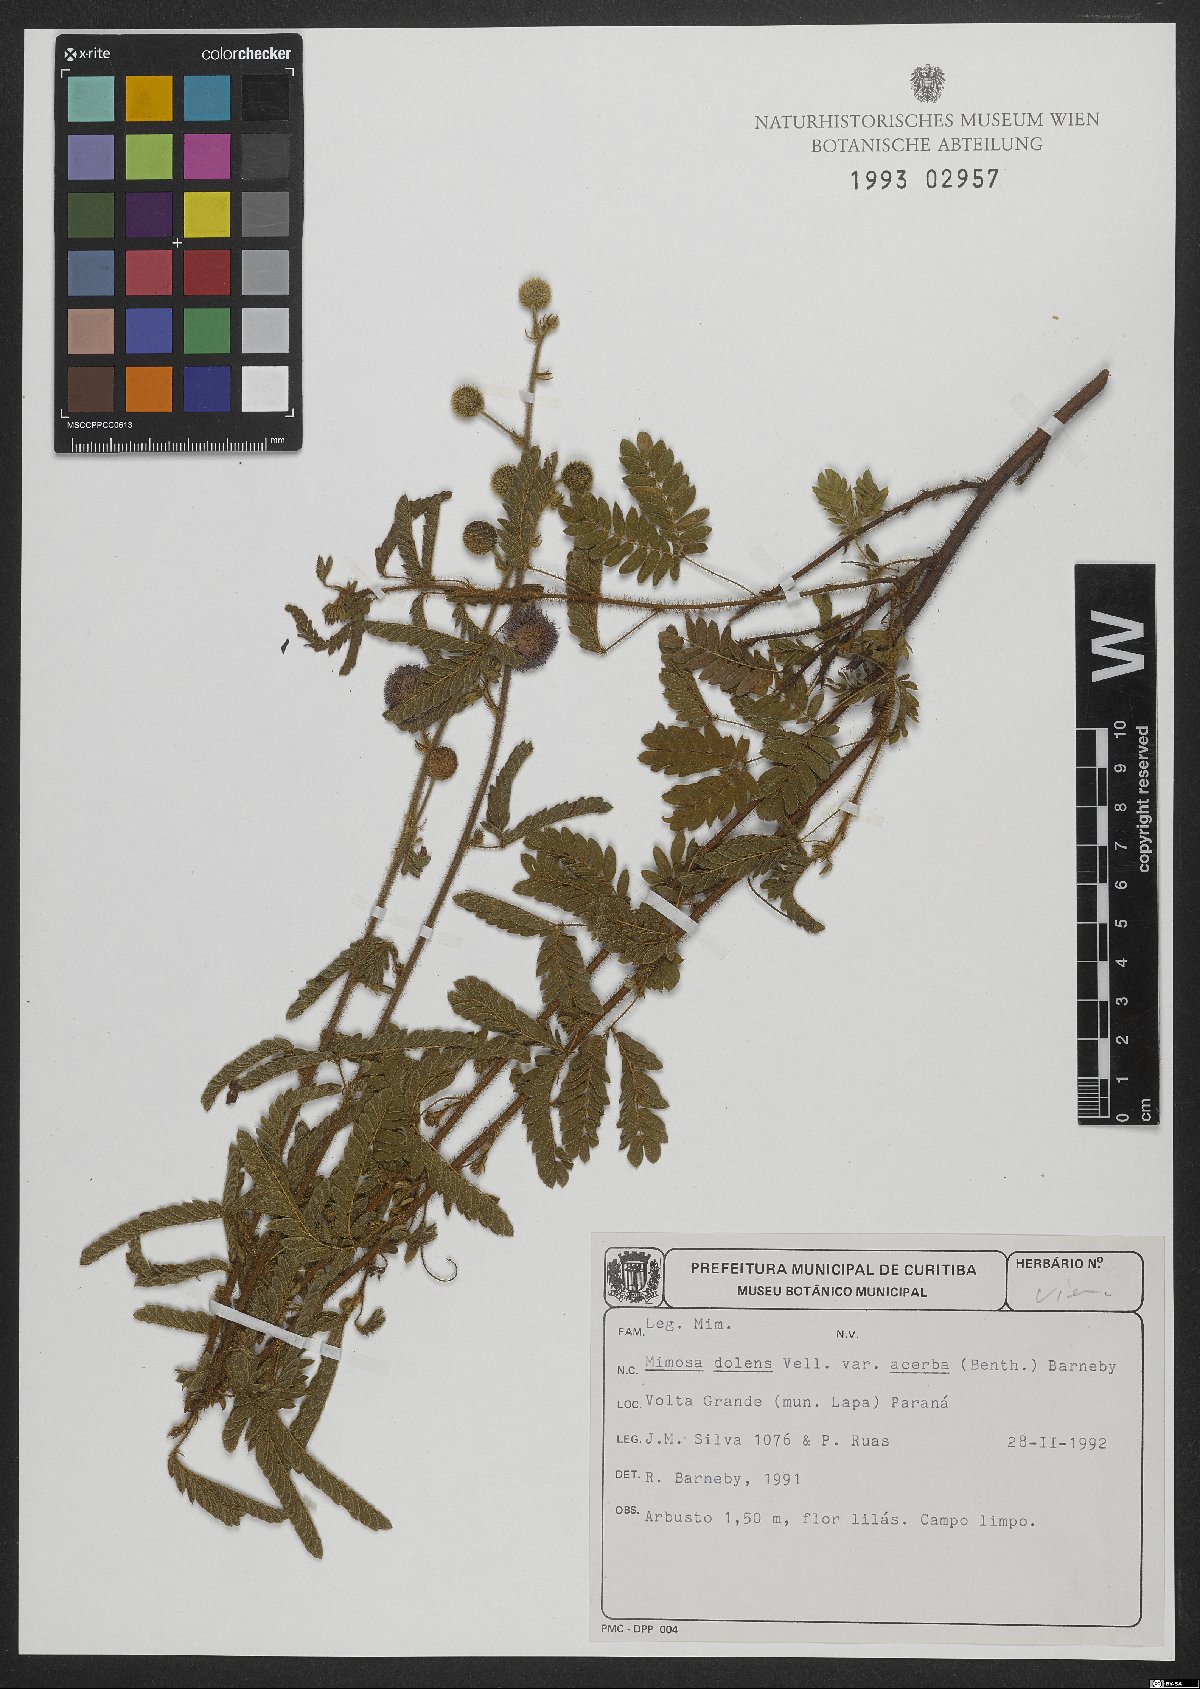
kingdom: Plantae
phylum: Tracheophyta
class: Magnoliopsida
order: Fabales
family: Fabaceae
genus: Mimosa
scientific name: Mimosa dolens
